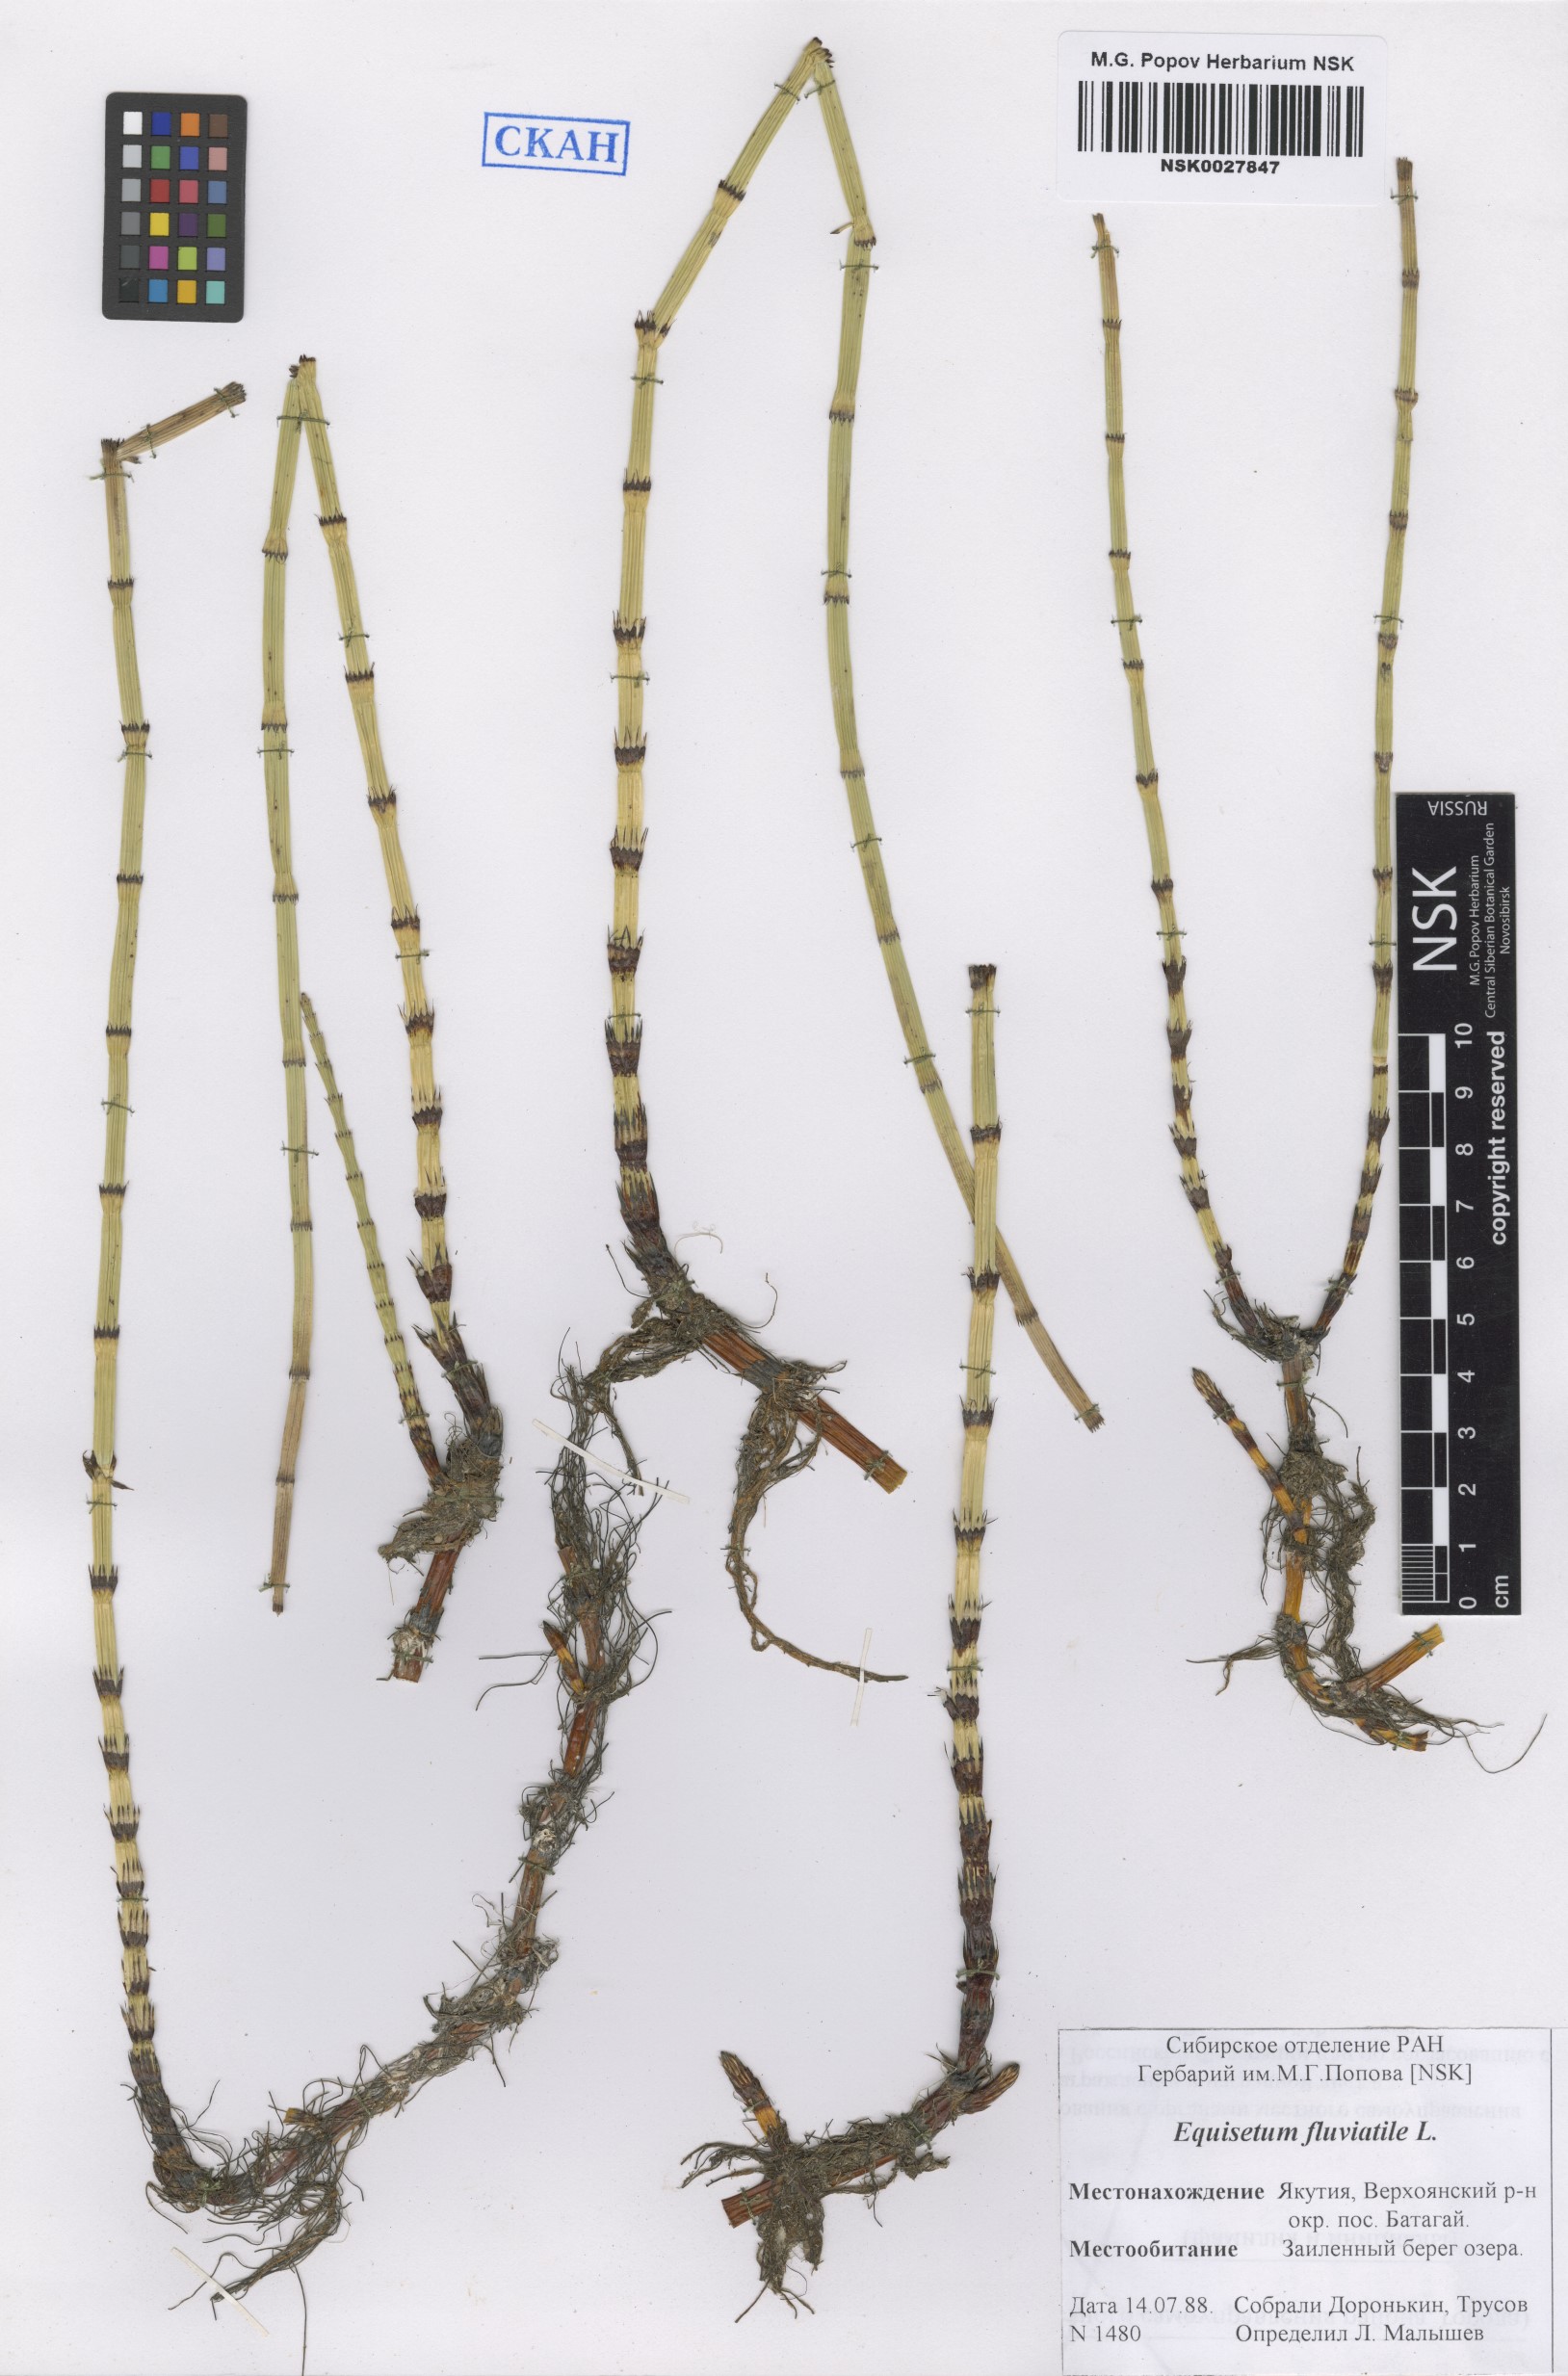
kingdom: Plantae
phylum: Tracheophyta
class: Polypodiopsida
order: Equisetales
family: Equisetaceae
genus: Equisetum
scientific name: Equisetum fluviatile
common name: Water horsetail
